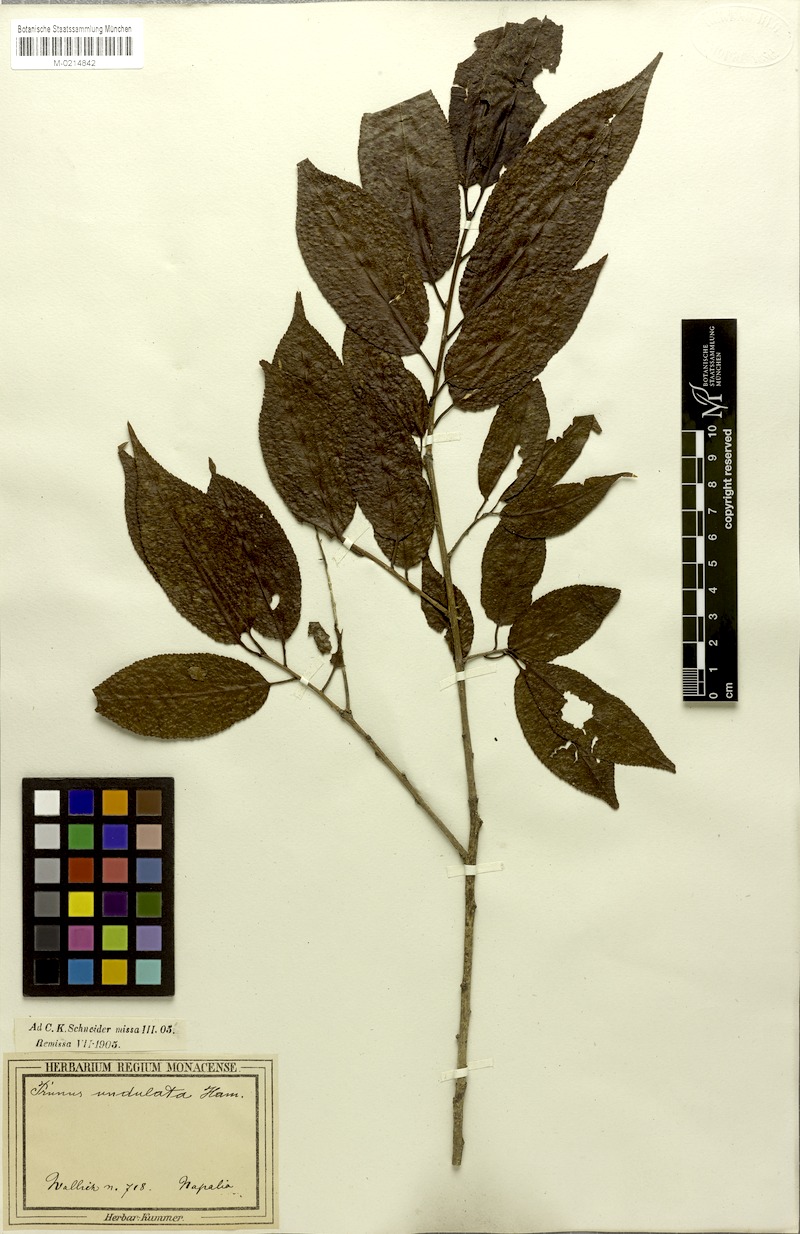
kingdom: Plantae
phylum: Tracheophyta
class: Magnoliopsida
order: Rosales
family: Rosaceae
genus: Prunus
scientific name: Prunus buergeriana
